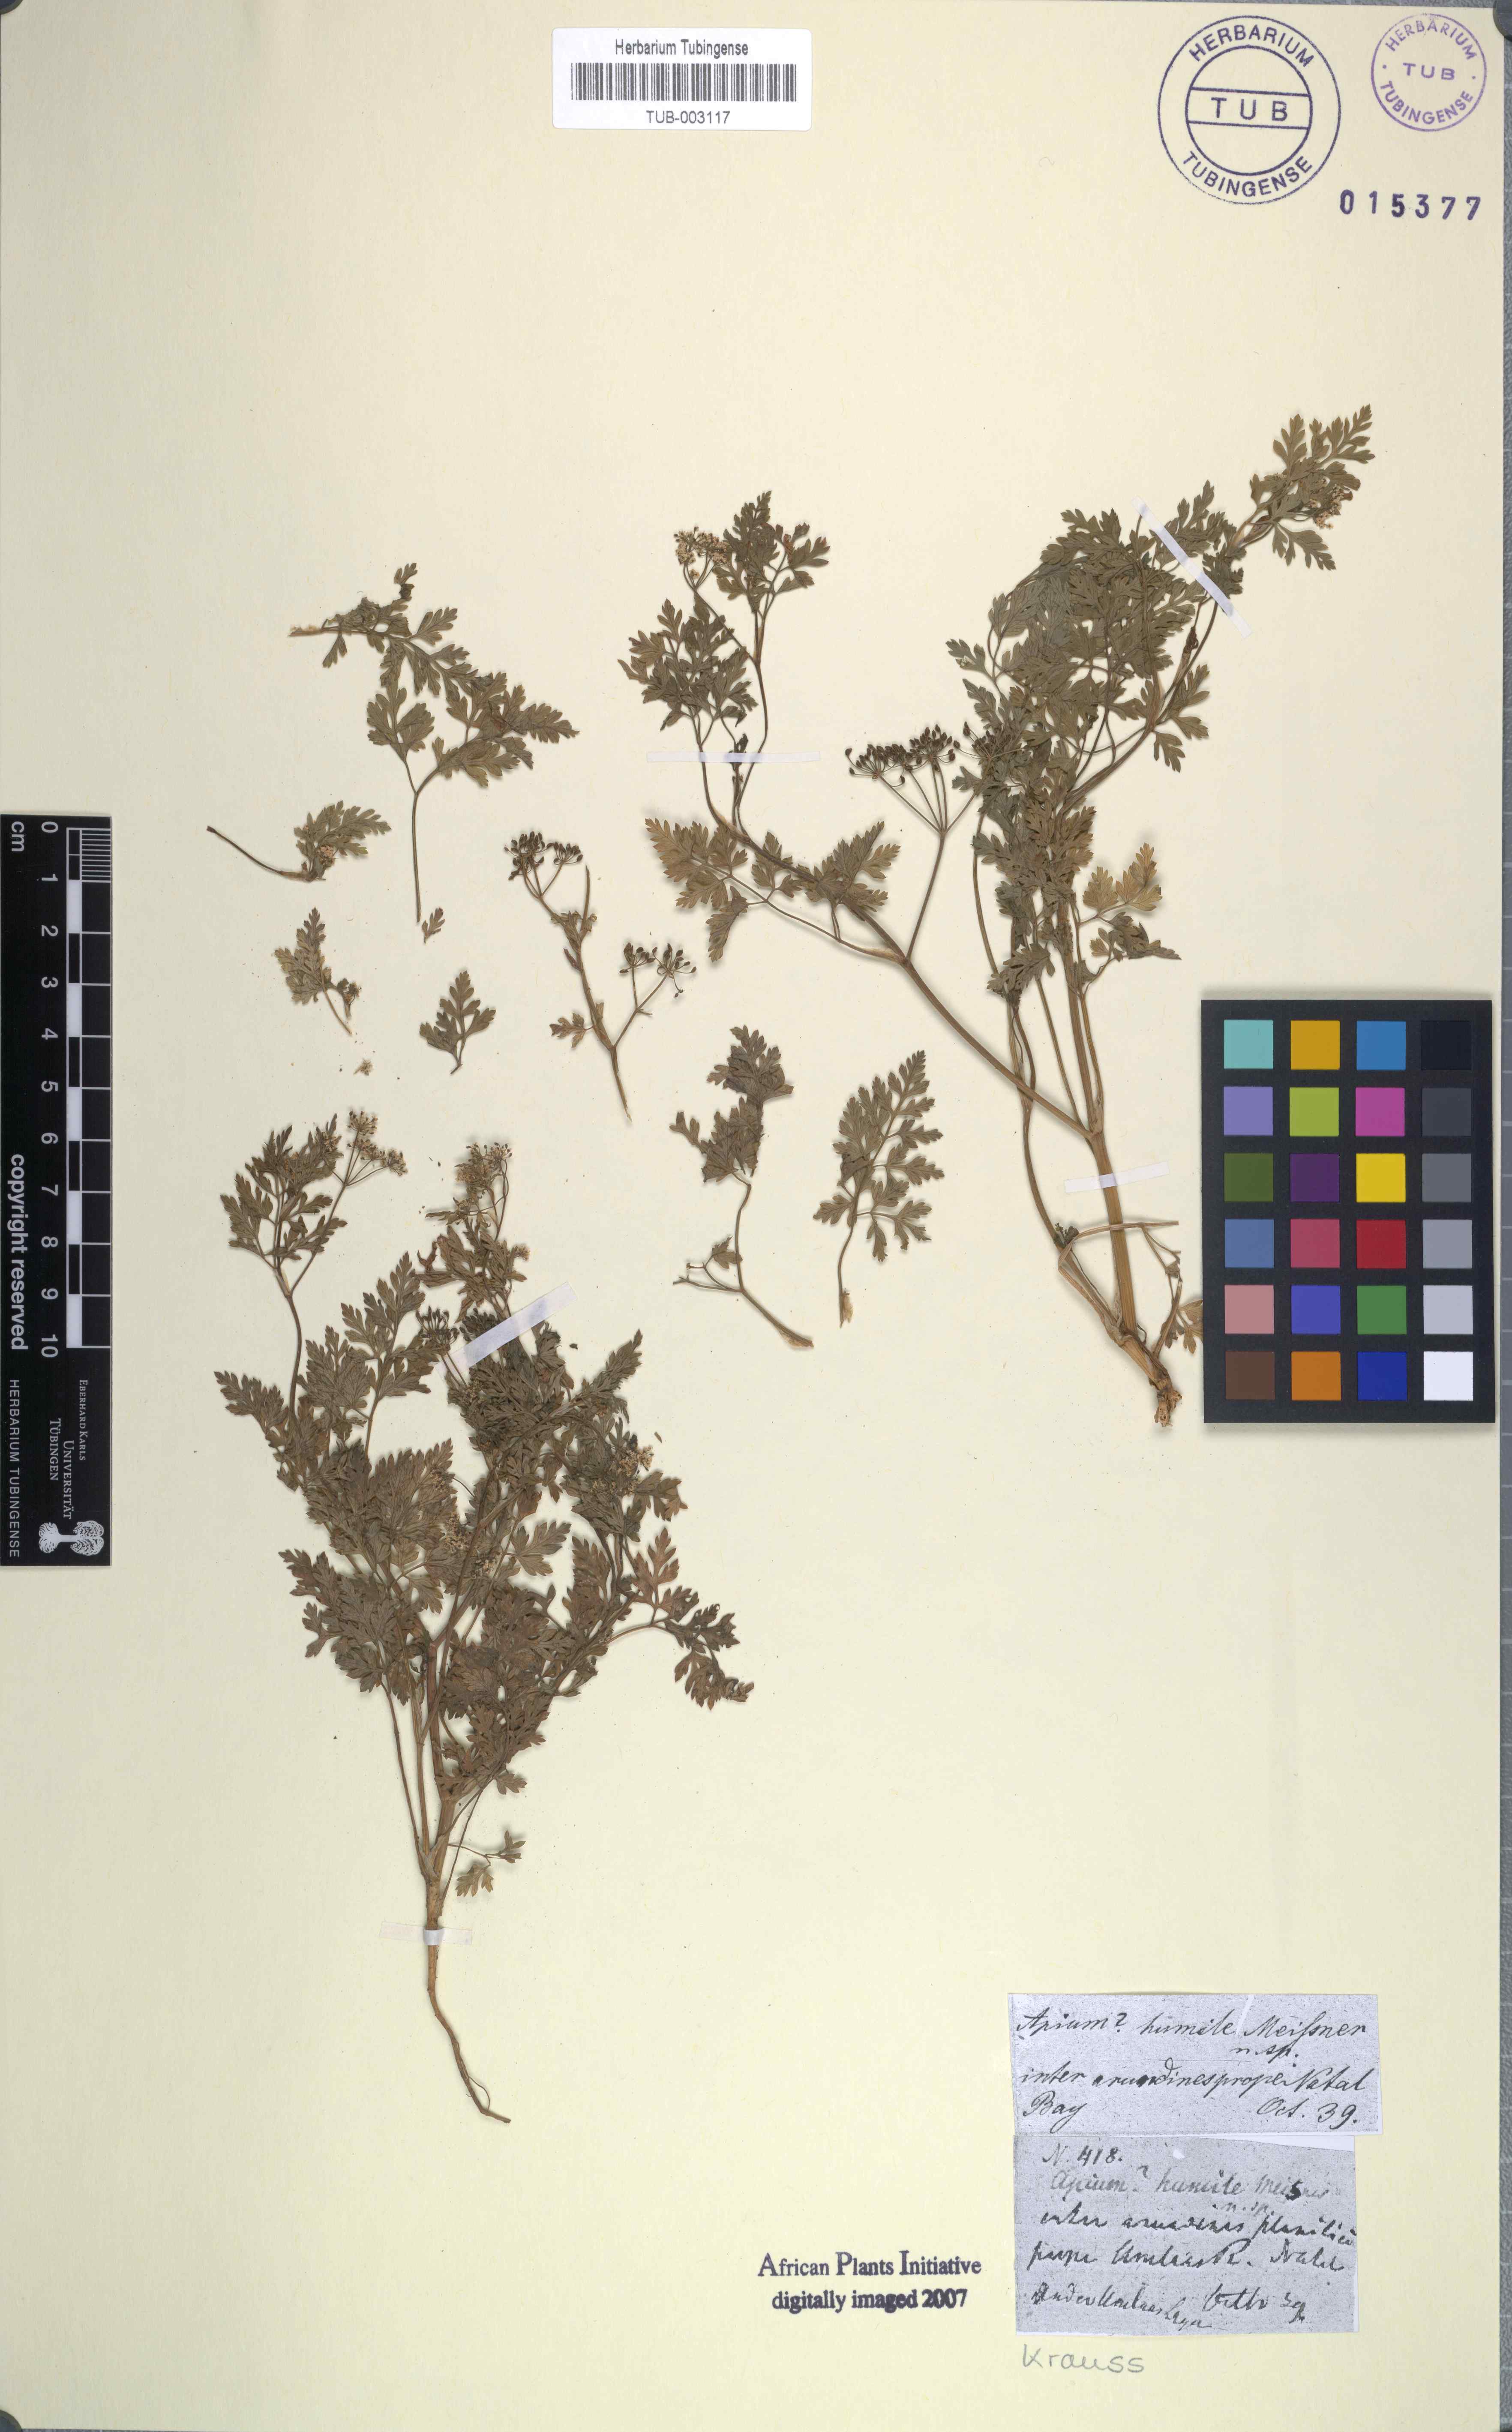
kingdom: Plantae
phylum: Tracheophyta
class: Magnoliopsida
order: Apiales
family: Apiaceae
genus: Dasispermum
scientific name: Dasispermum humile
